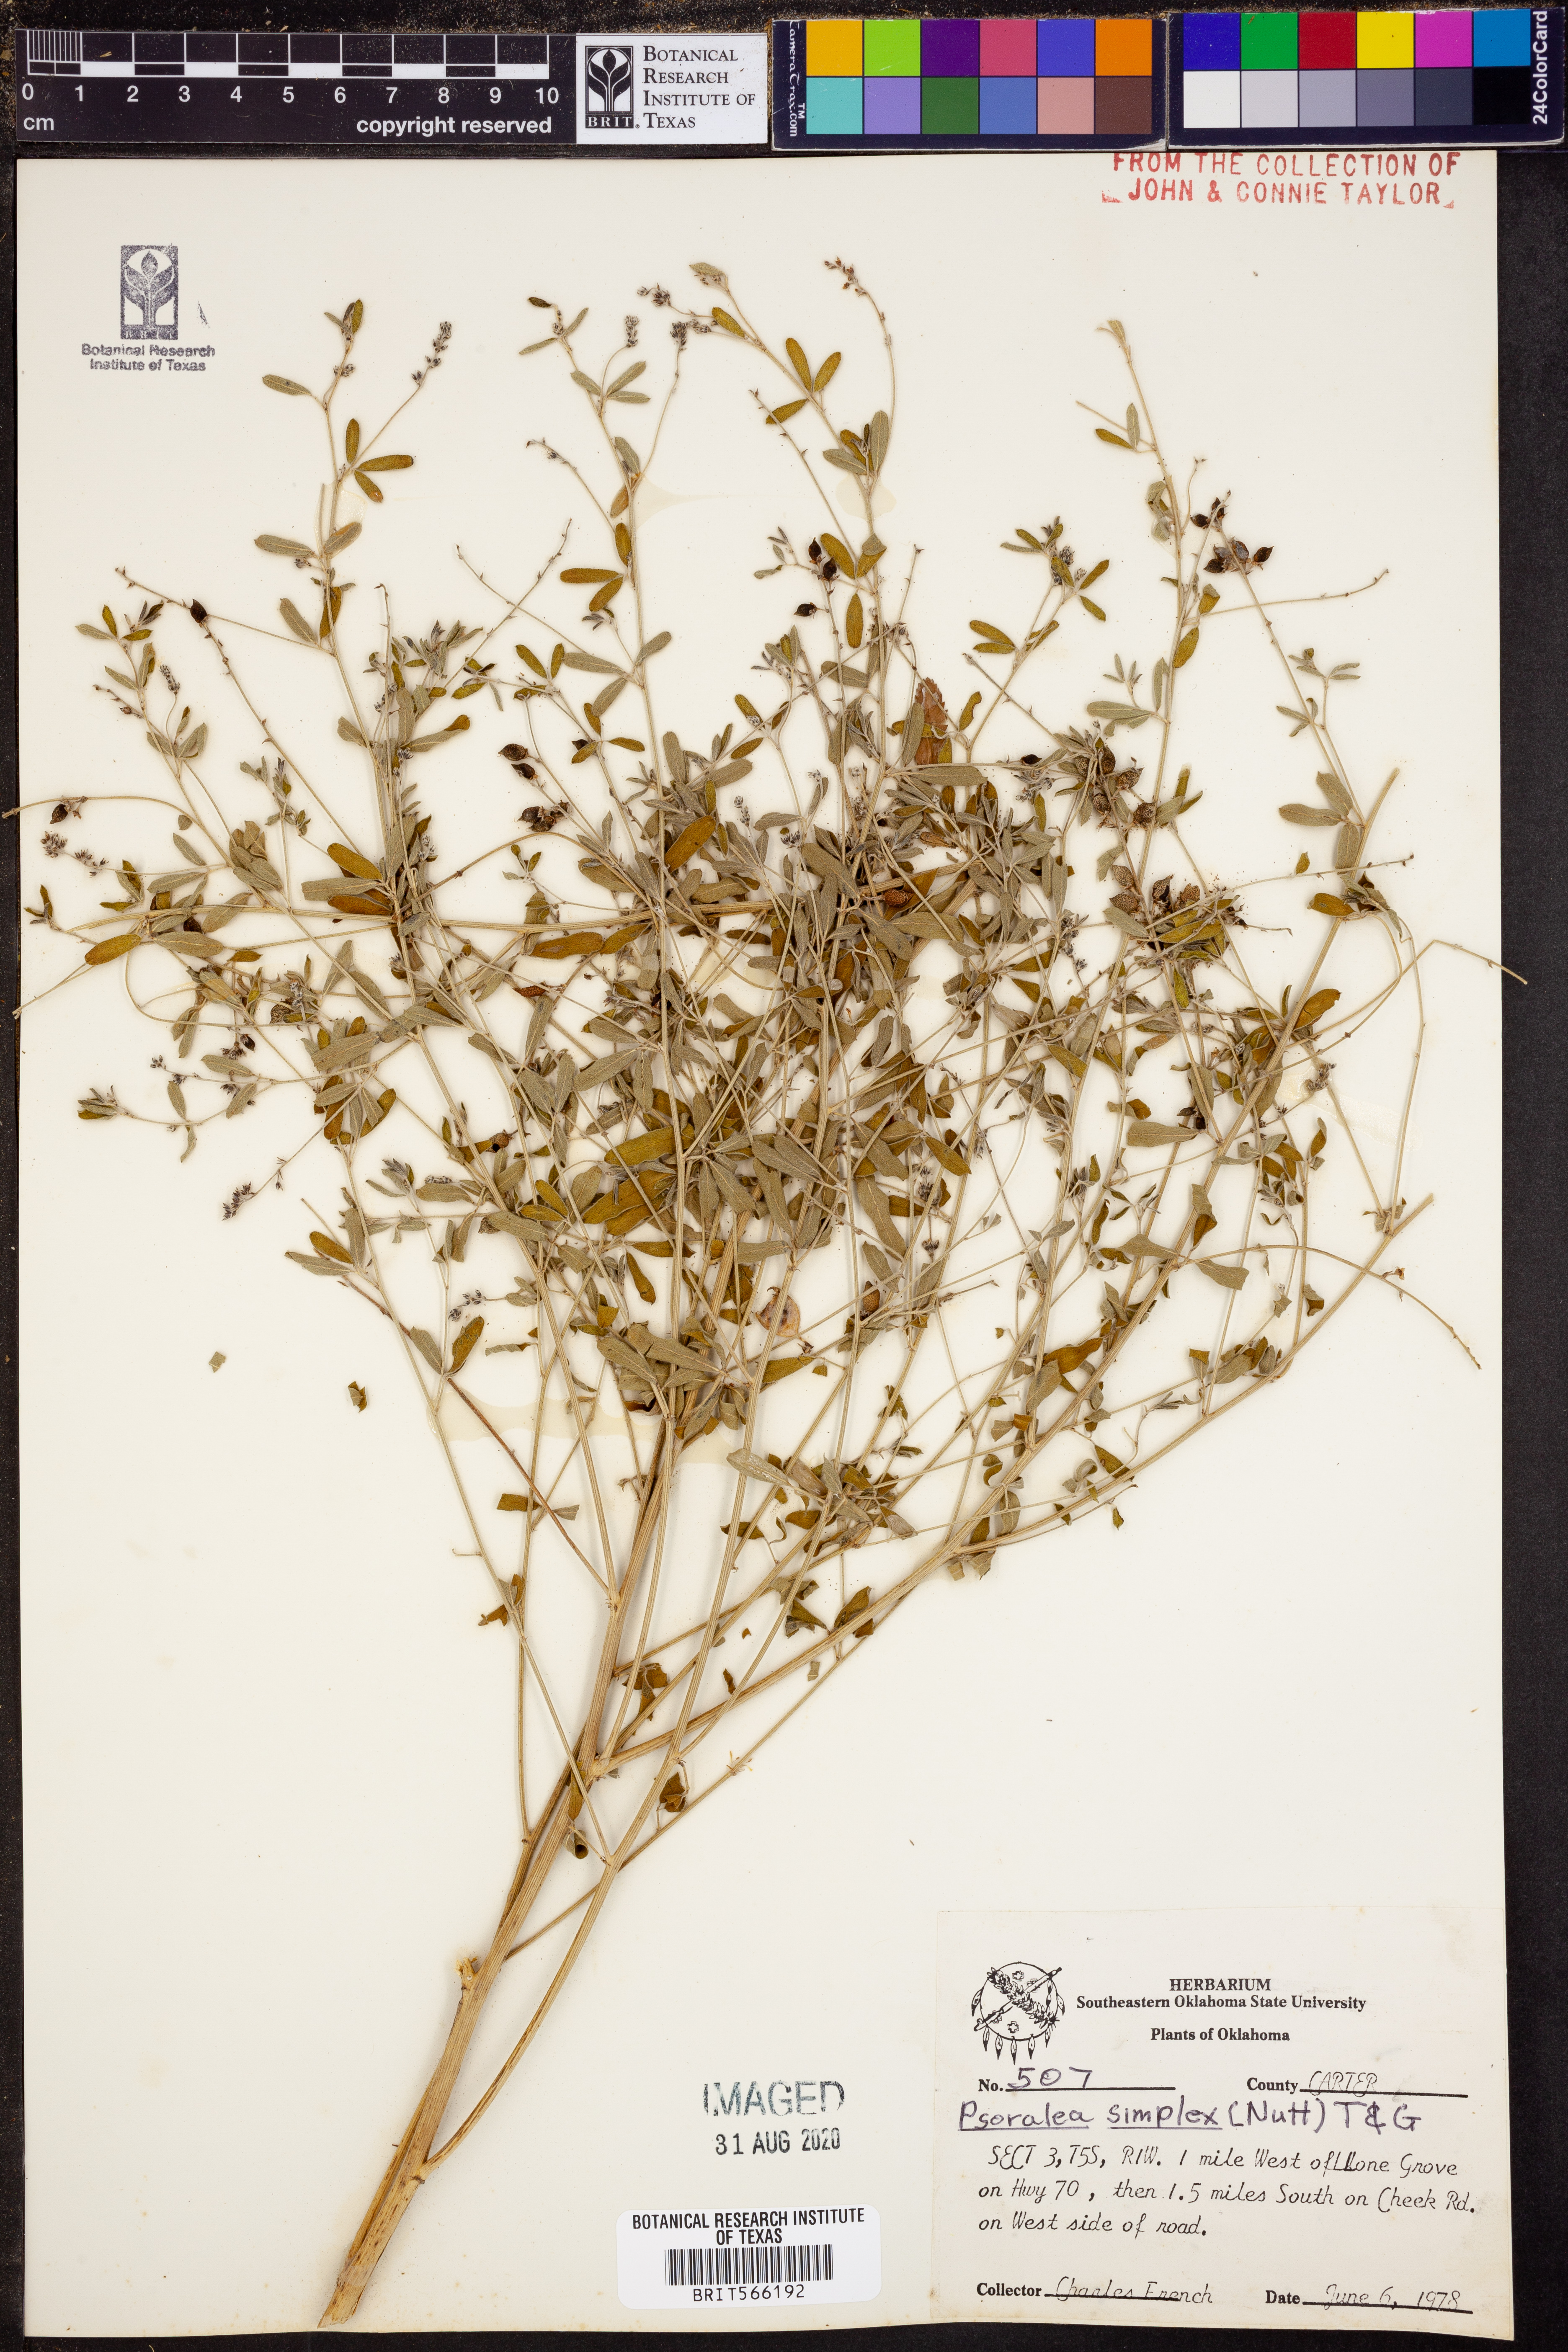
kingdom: Plantae
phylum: Tracheophyta
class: Magnoliopsida
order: Fabales
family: Fabaceae
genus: Orbexilum
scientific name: Orbexilum simplex
